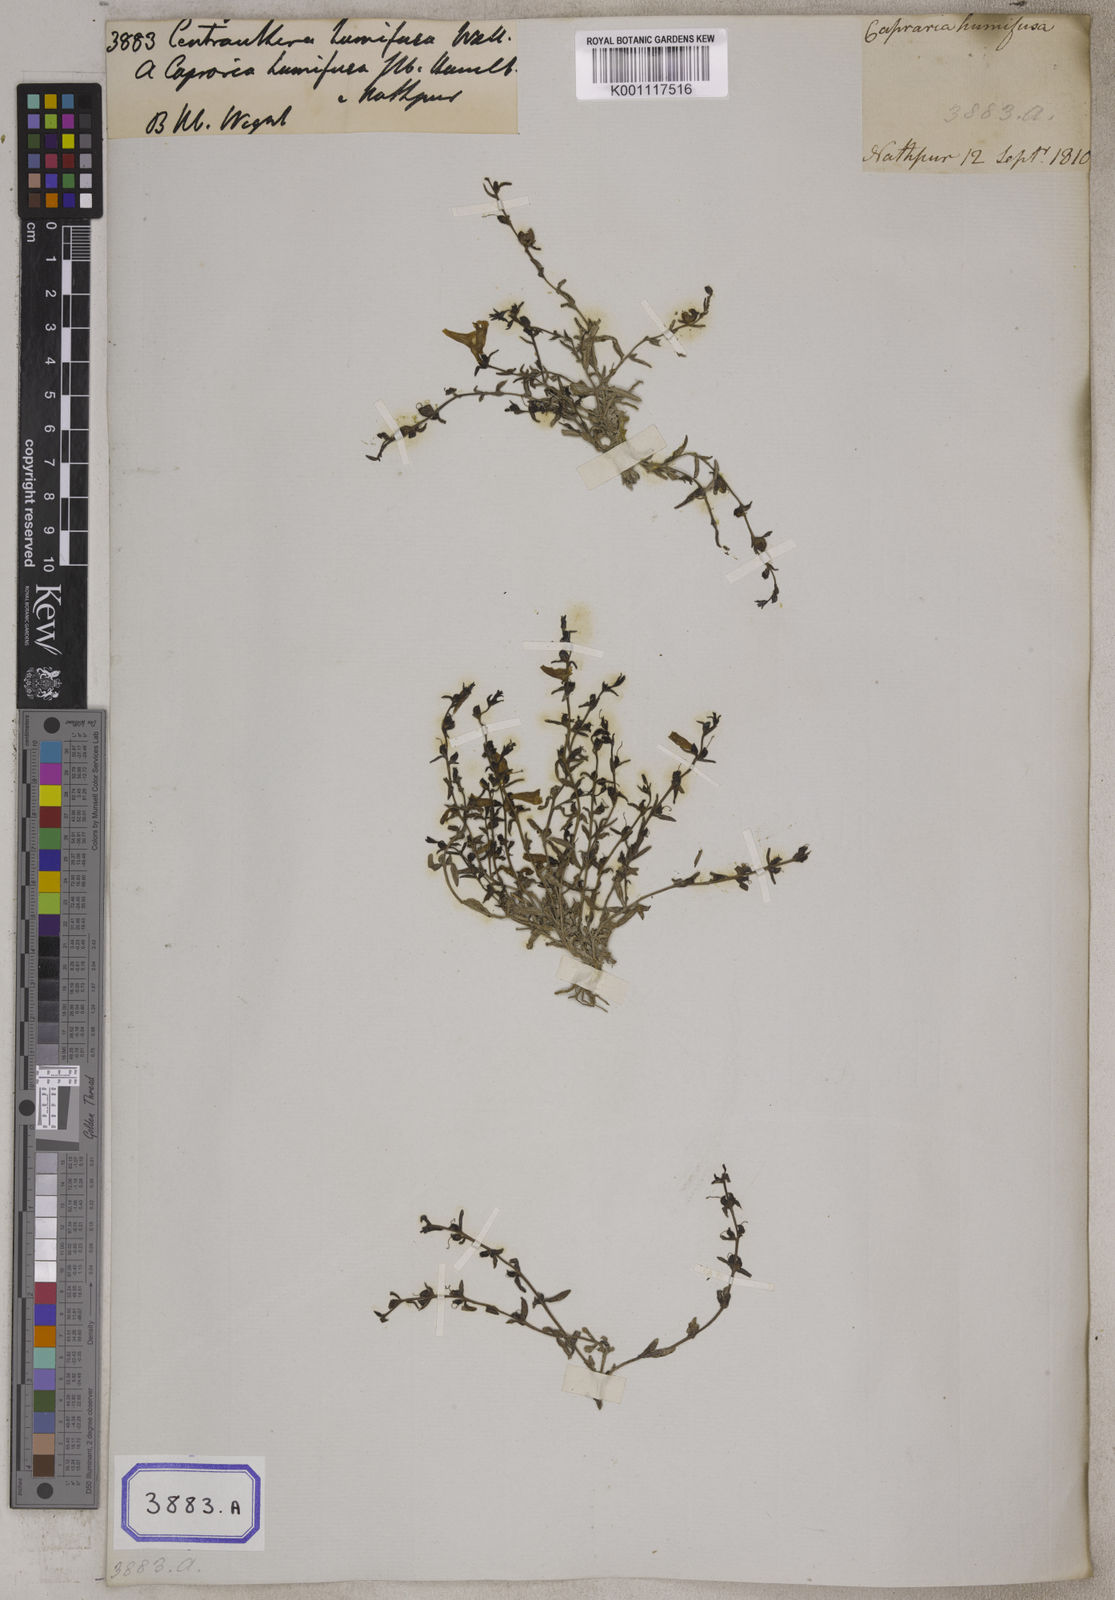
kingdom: Plantae
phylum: Tracheophyta
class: Magnoliopsida
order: Lamiales
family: Orobanchaceae
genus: Centranthera
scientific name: Centranthera
